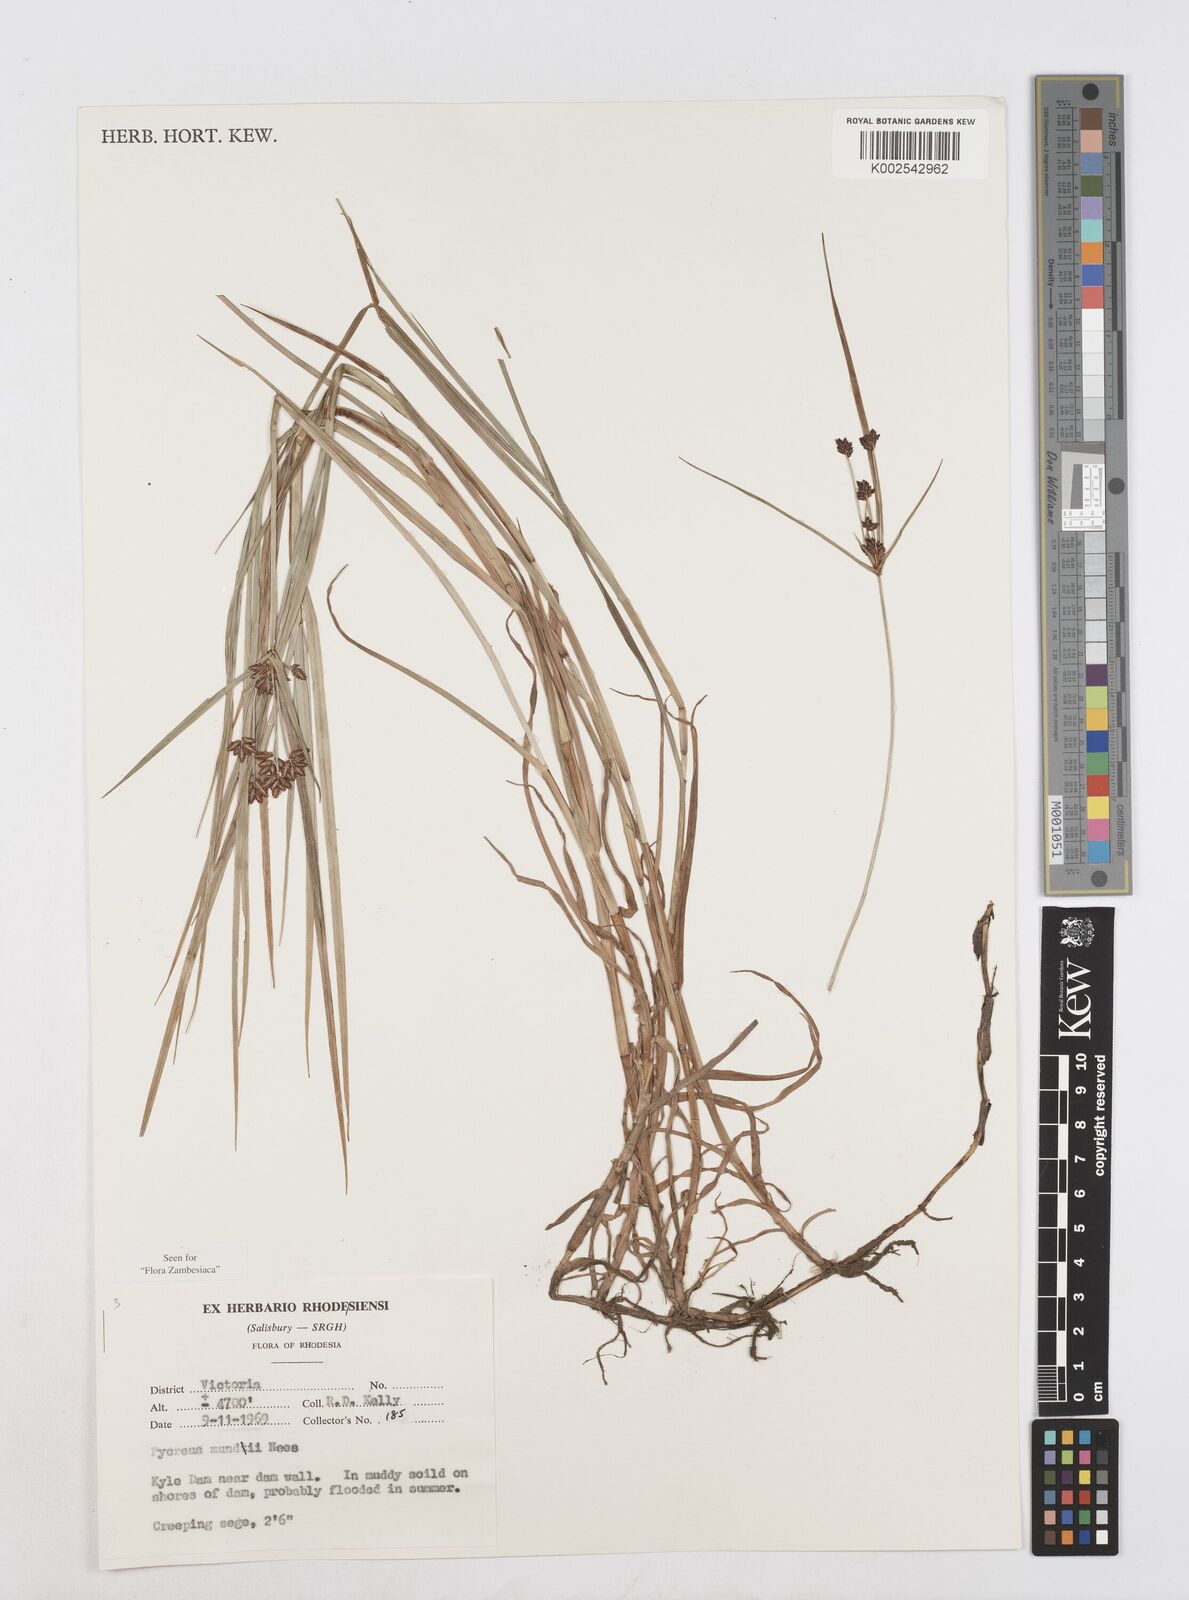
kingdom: Plantae
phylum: Tracheophyta
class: Liliopsida
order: Poales
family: Cyperaceae
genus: Cyperus
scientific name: Cyperus mundii
